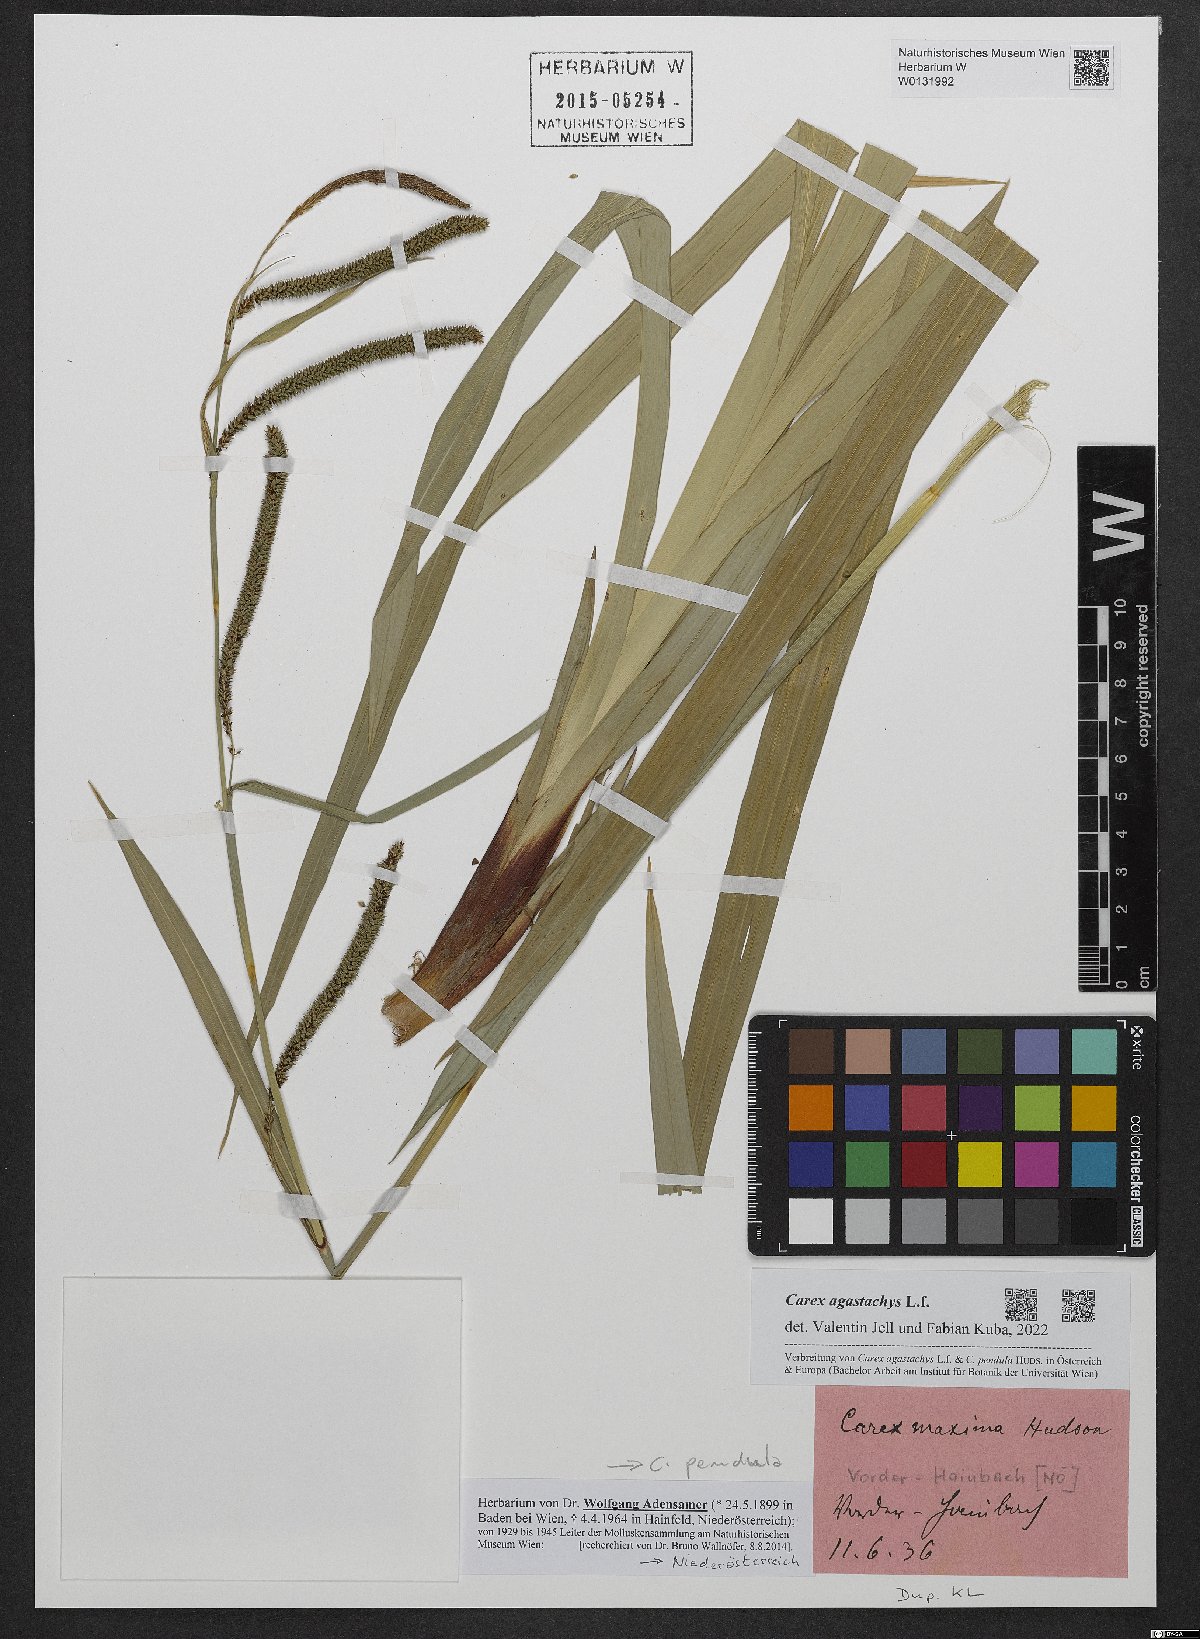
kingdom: Plantae
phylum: Tracheophyta
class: Liliopsida
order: Poales
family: Cyperaceae
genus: Carex
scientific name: Carex agastachys
